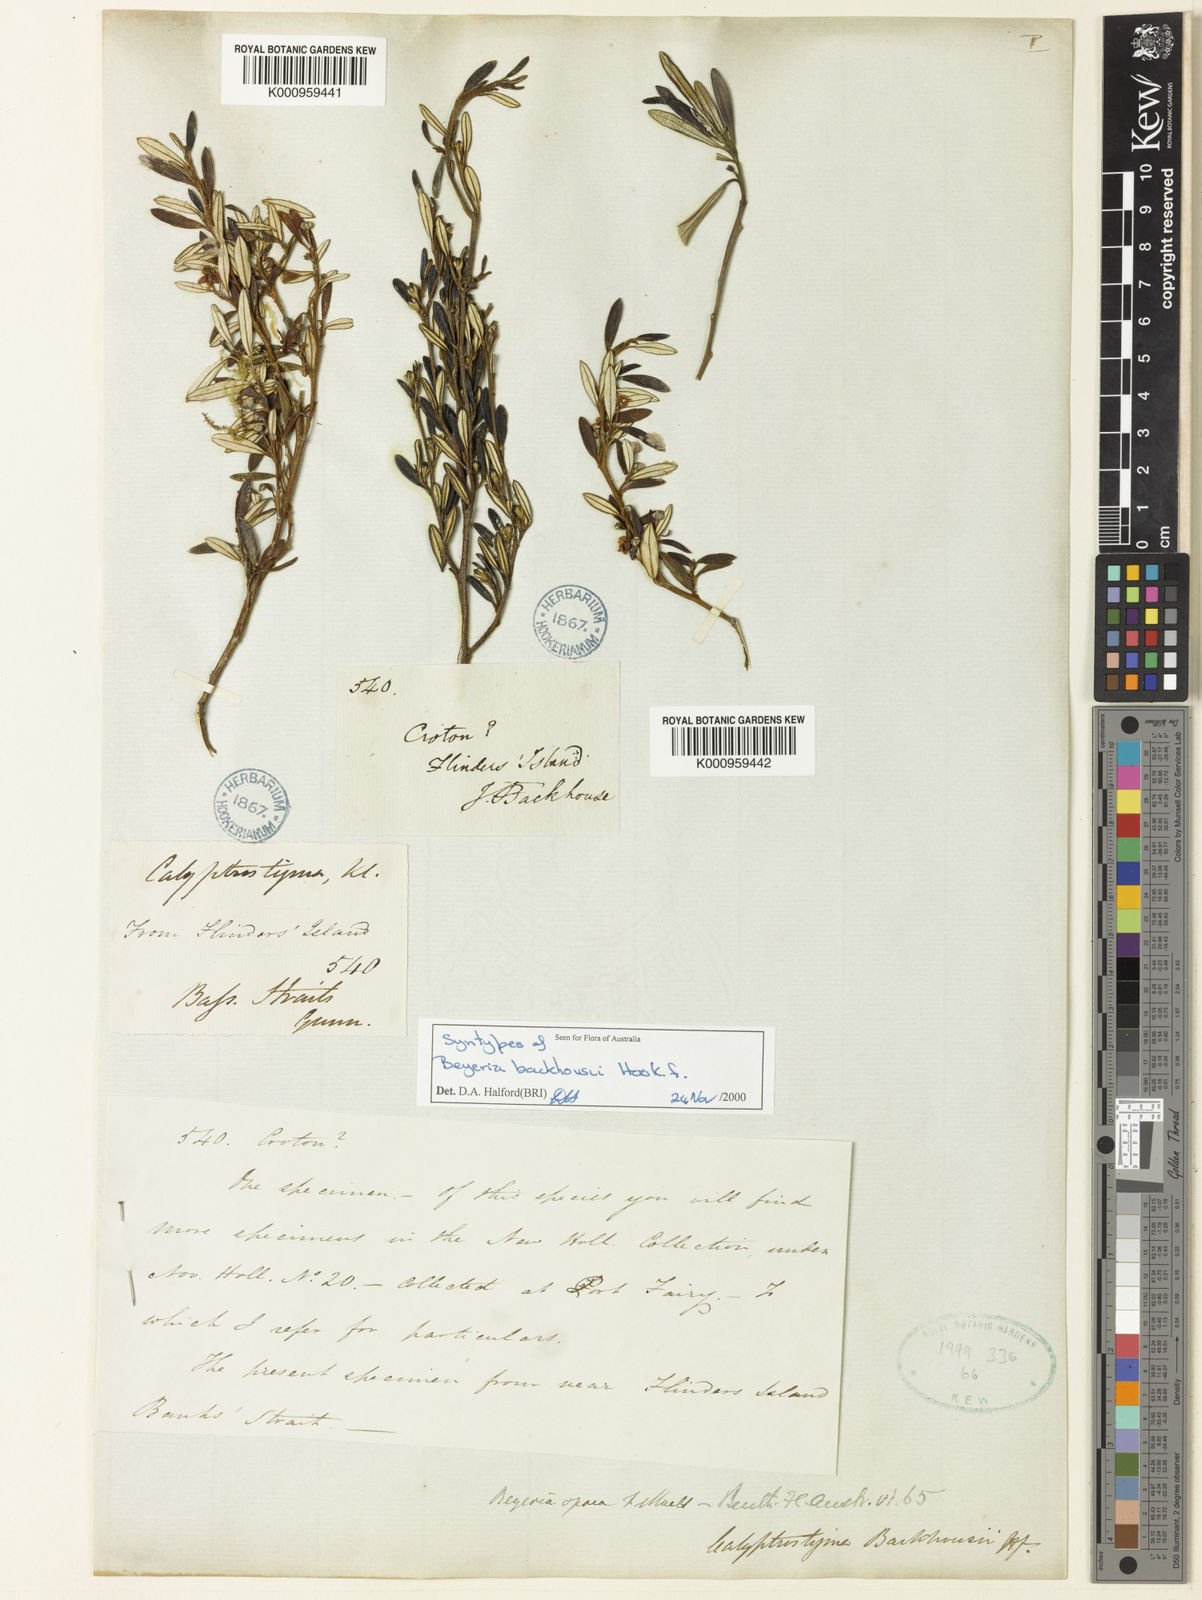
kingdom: Plantae
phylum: Tracheophyta
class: Magnoliopsida
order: Malpighiales
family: Euphorbiaceae
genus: Beyeria
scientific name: Beyeria leschenaultii
